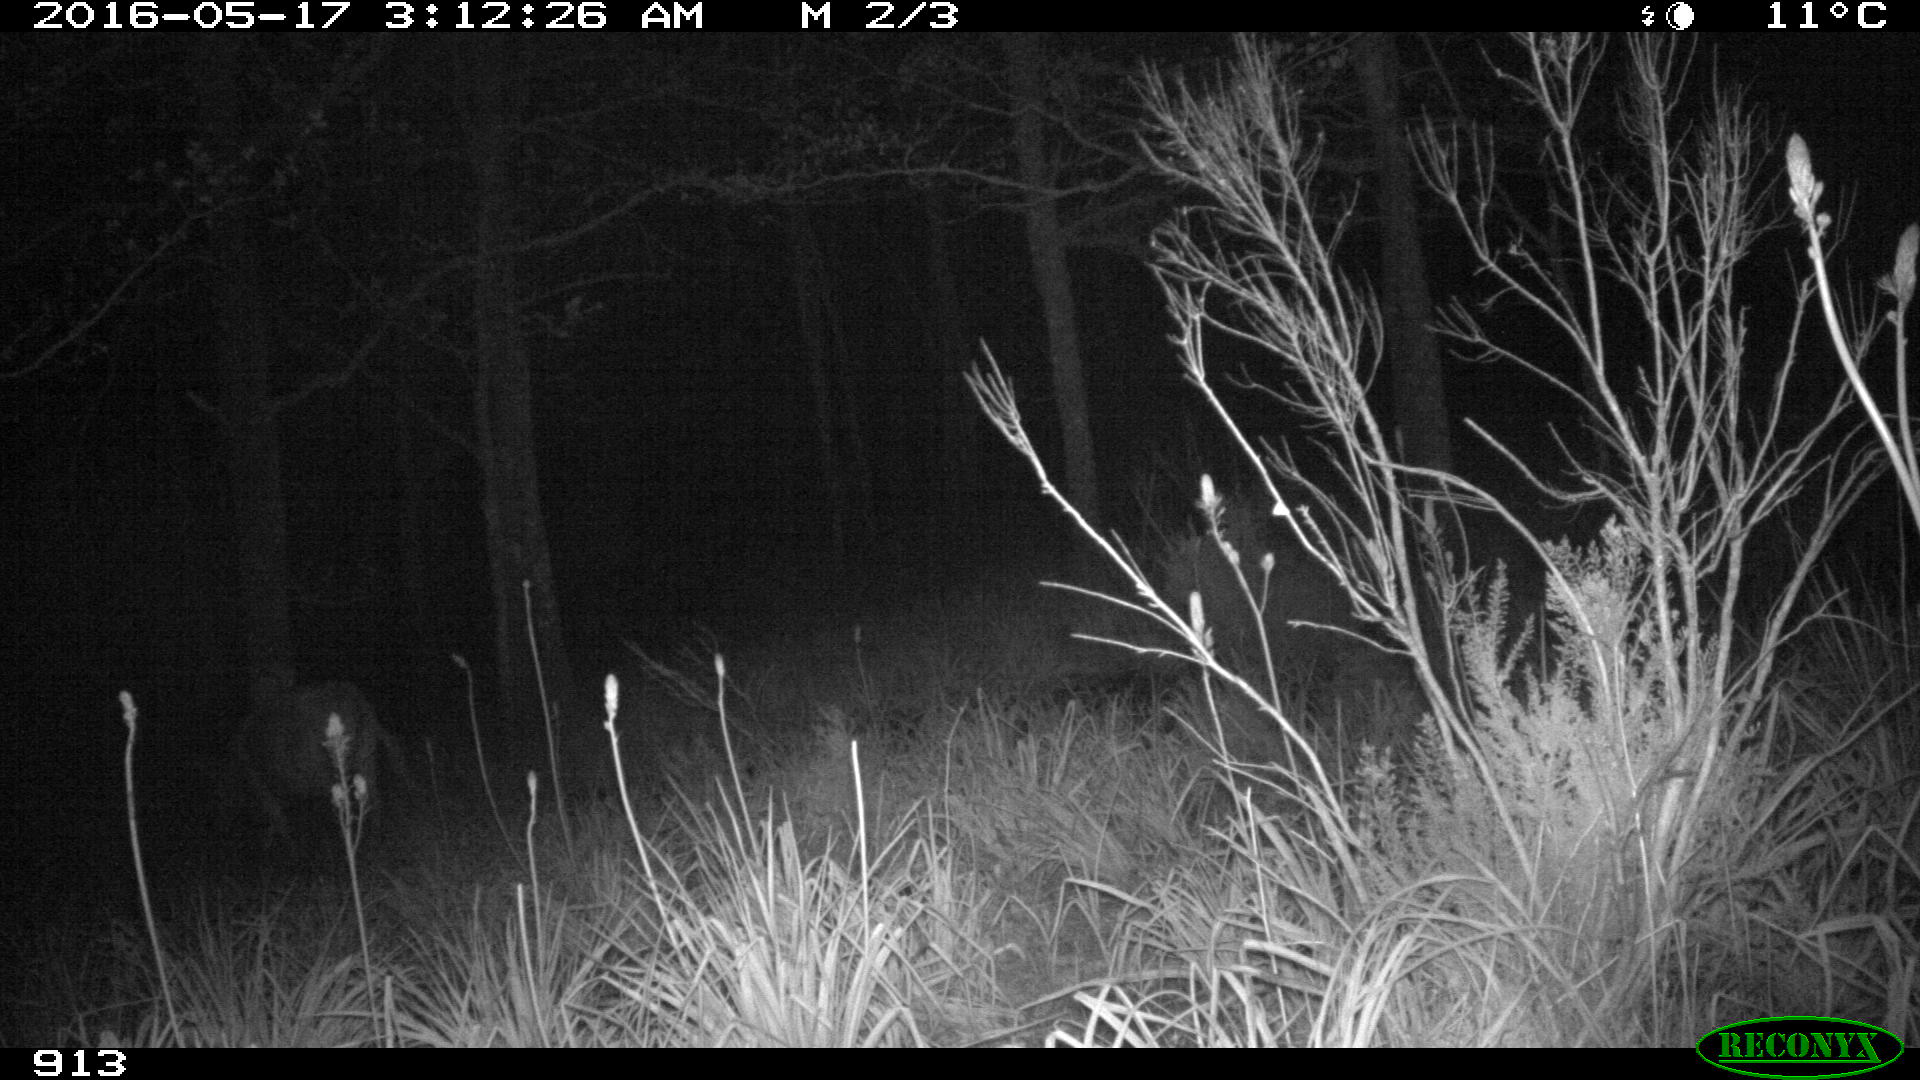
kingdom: Animalia
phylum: Chordata
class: Mammalia
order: Artiodactyla
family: Bovidae
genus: Bos
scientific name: Bos taurus
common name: Domesticated cattle
